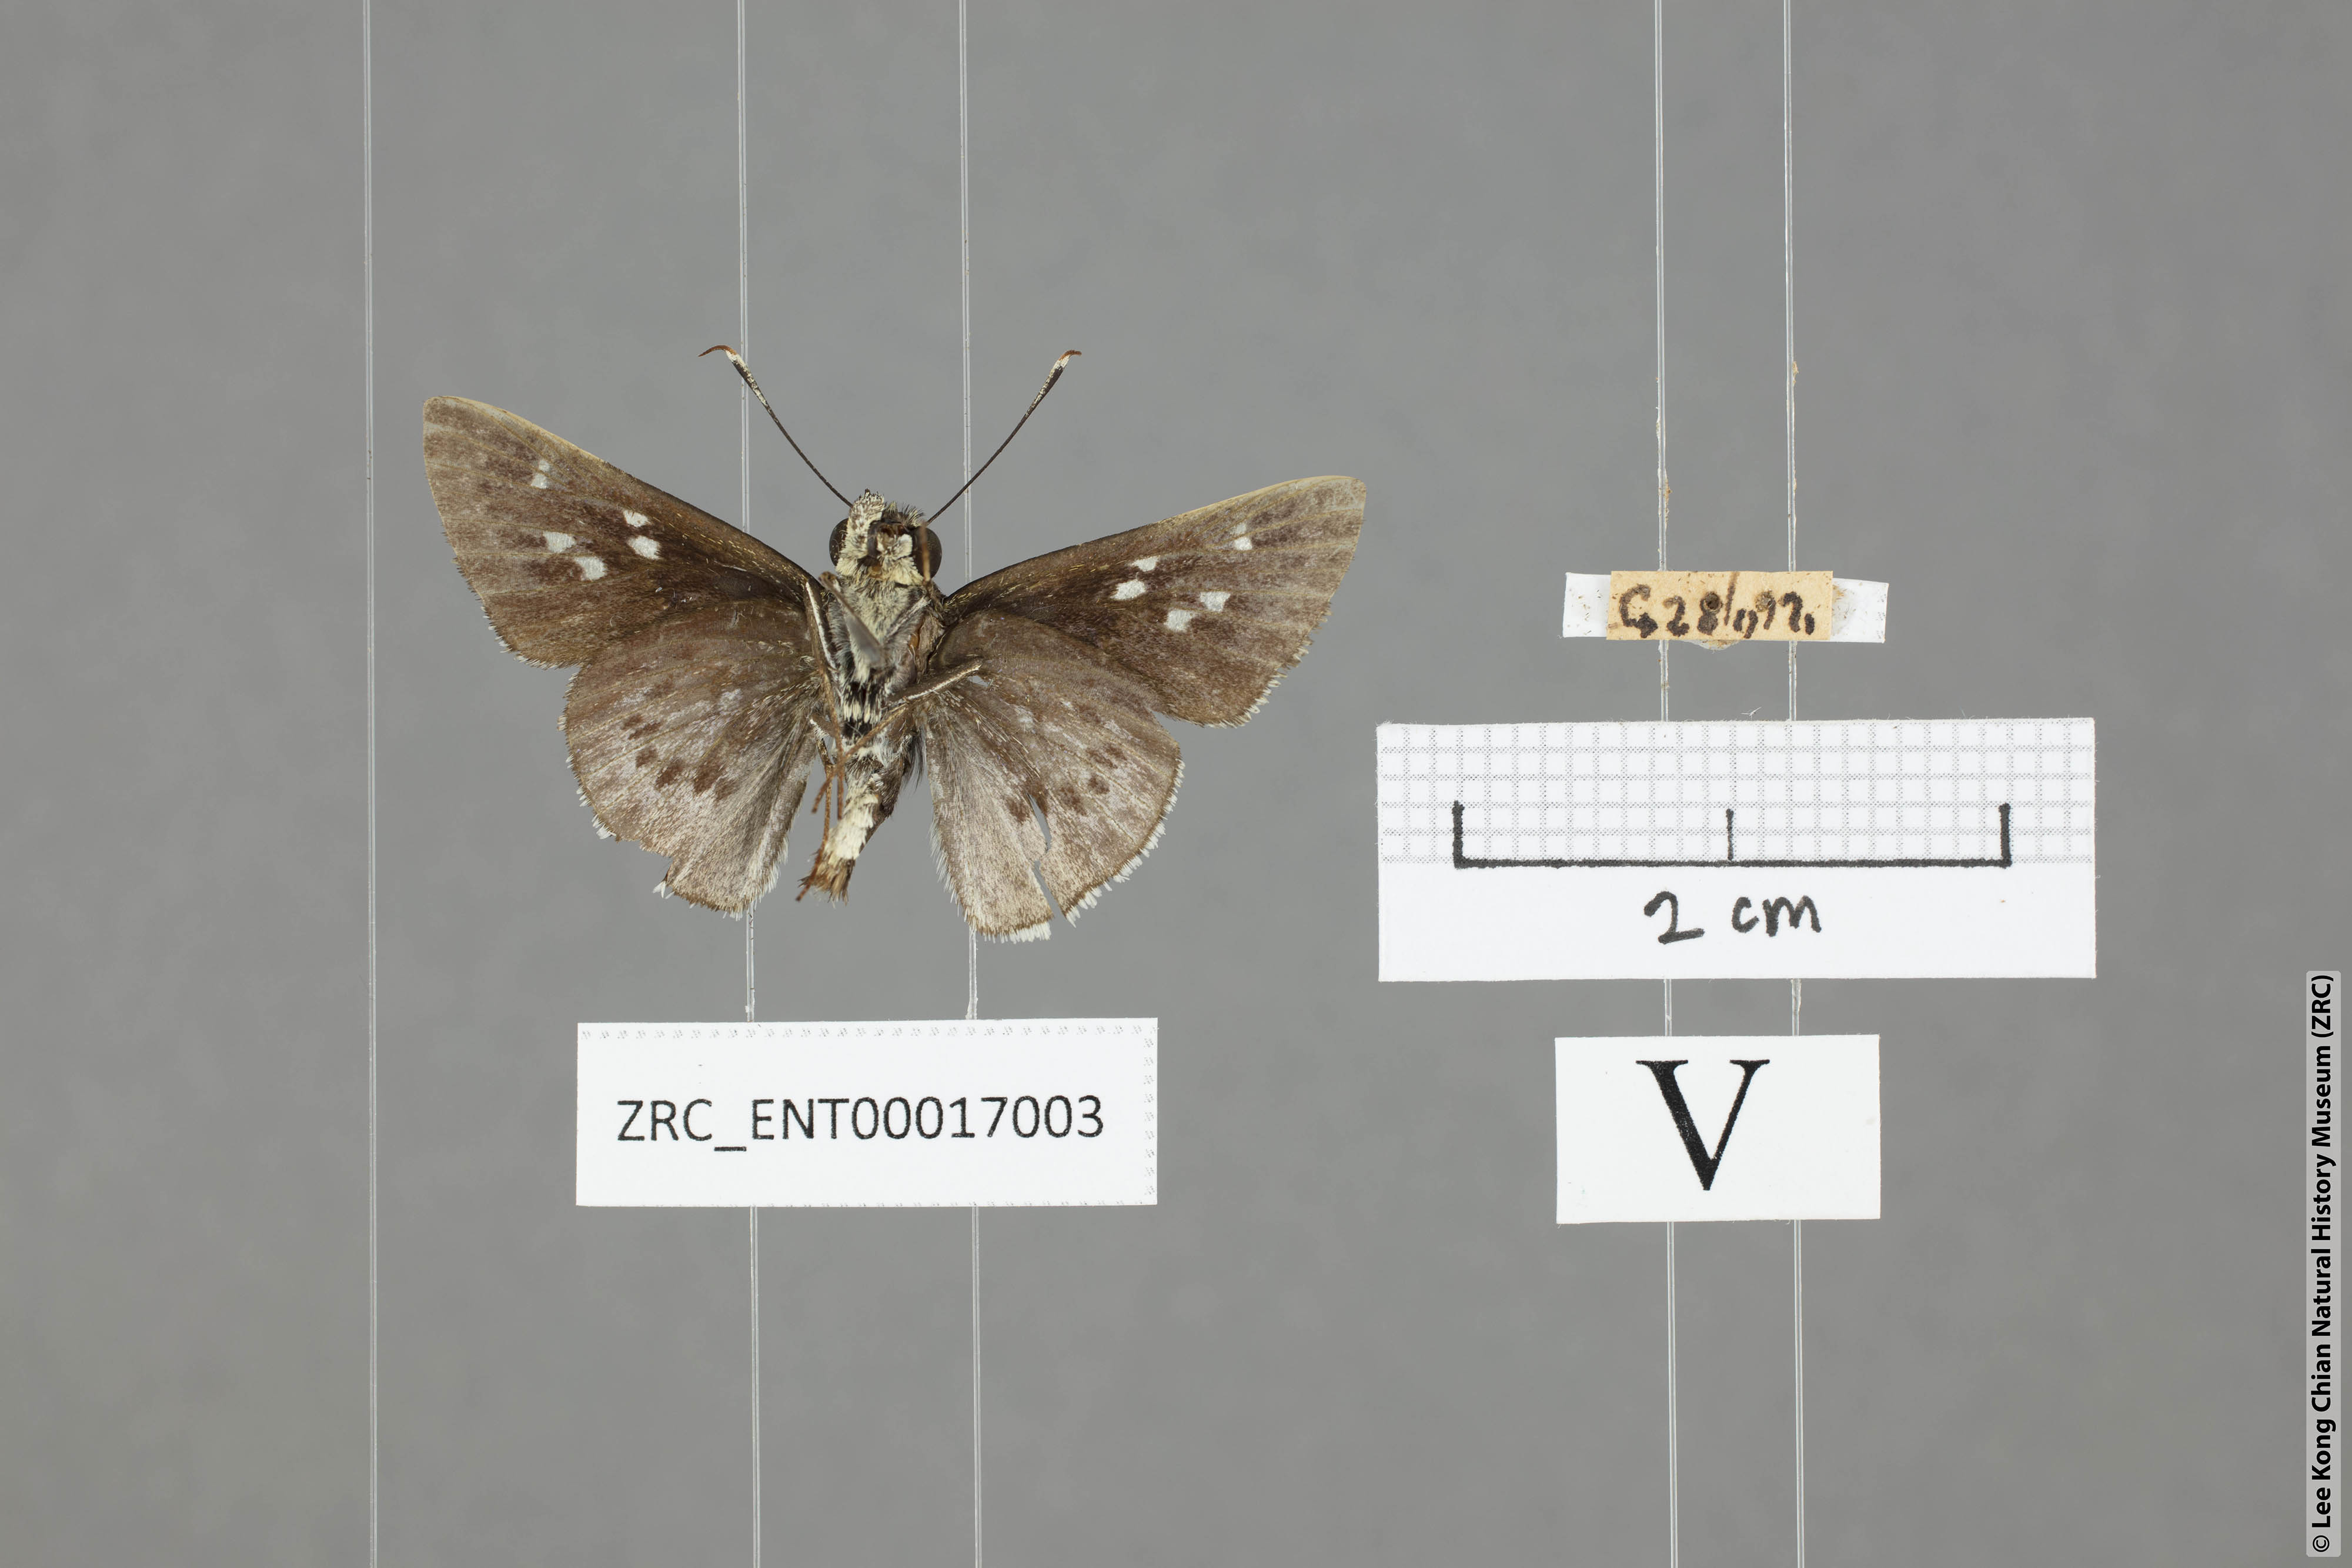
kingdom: Animalia
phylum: Arthropoda
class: Insecta
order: Lepidoptera
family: Hesperiidae
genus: Halpe
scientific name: Halpe insignis
